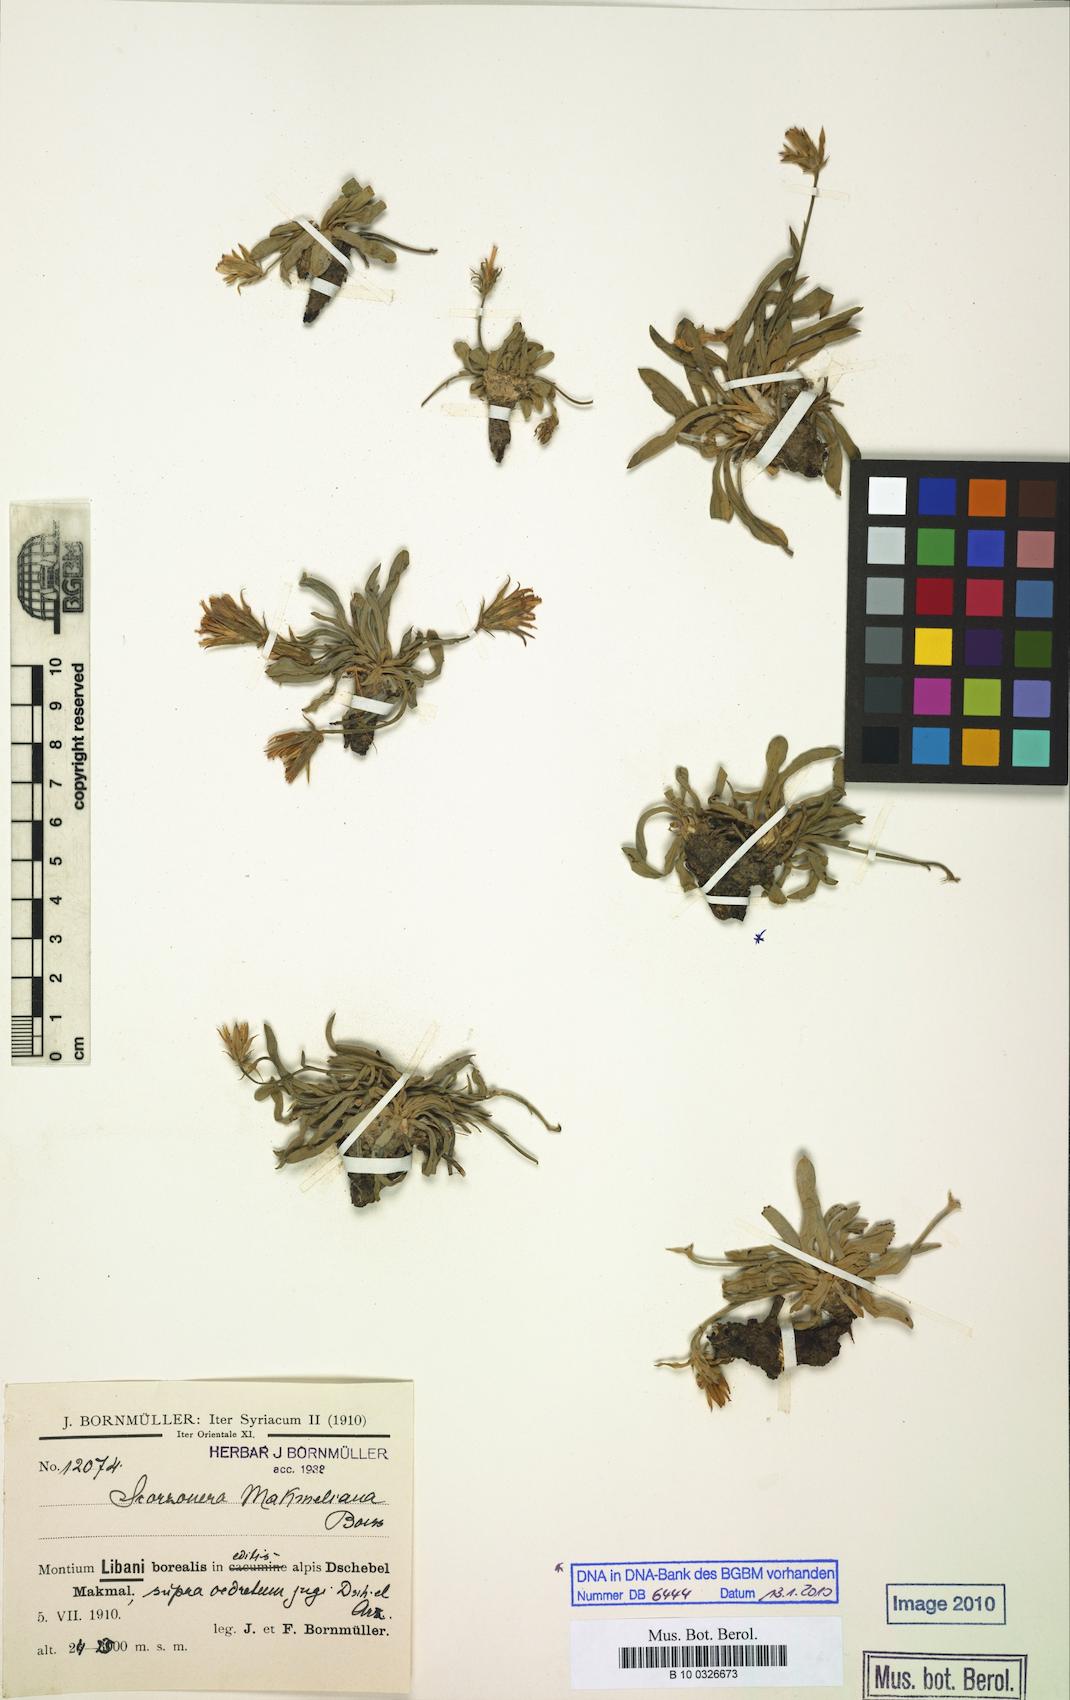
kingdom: Plantae
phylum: Tracheophyta
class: Magnoliopsida
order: Asterales
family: Asteraceae
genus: Gelasia
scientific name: Gelasia mackmeliana
